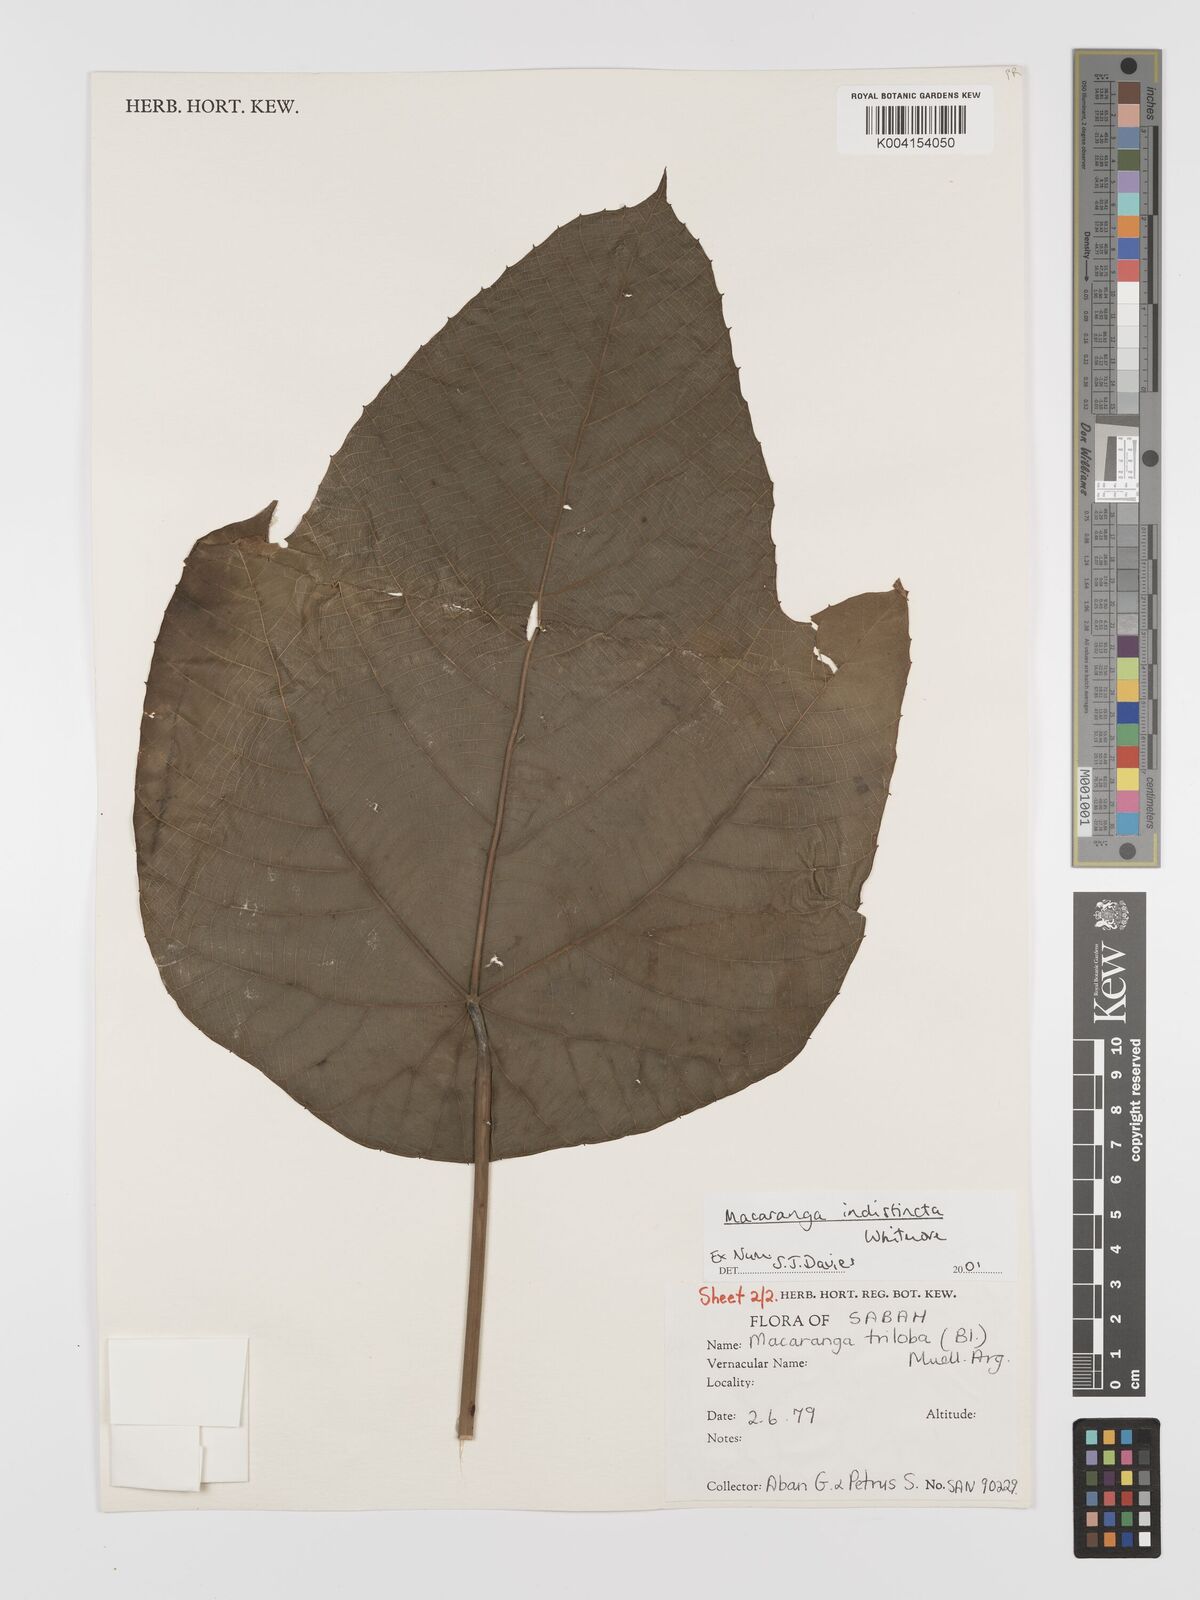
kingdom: Plantae
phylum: Tracheophyta
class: Magnoliopsida
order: Malpighiales
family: Euphorbiaceae
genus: Macaranga
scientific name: Macaranga indistincta
